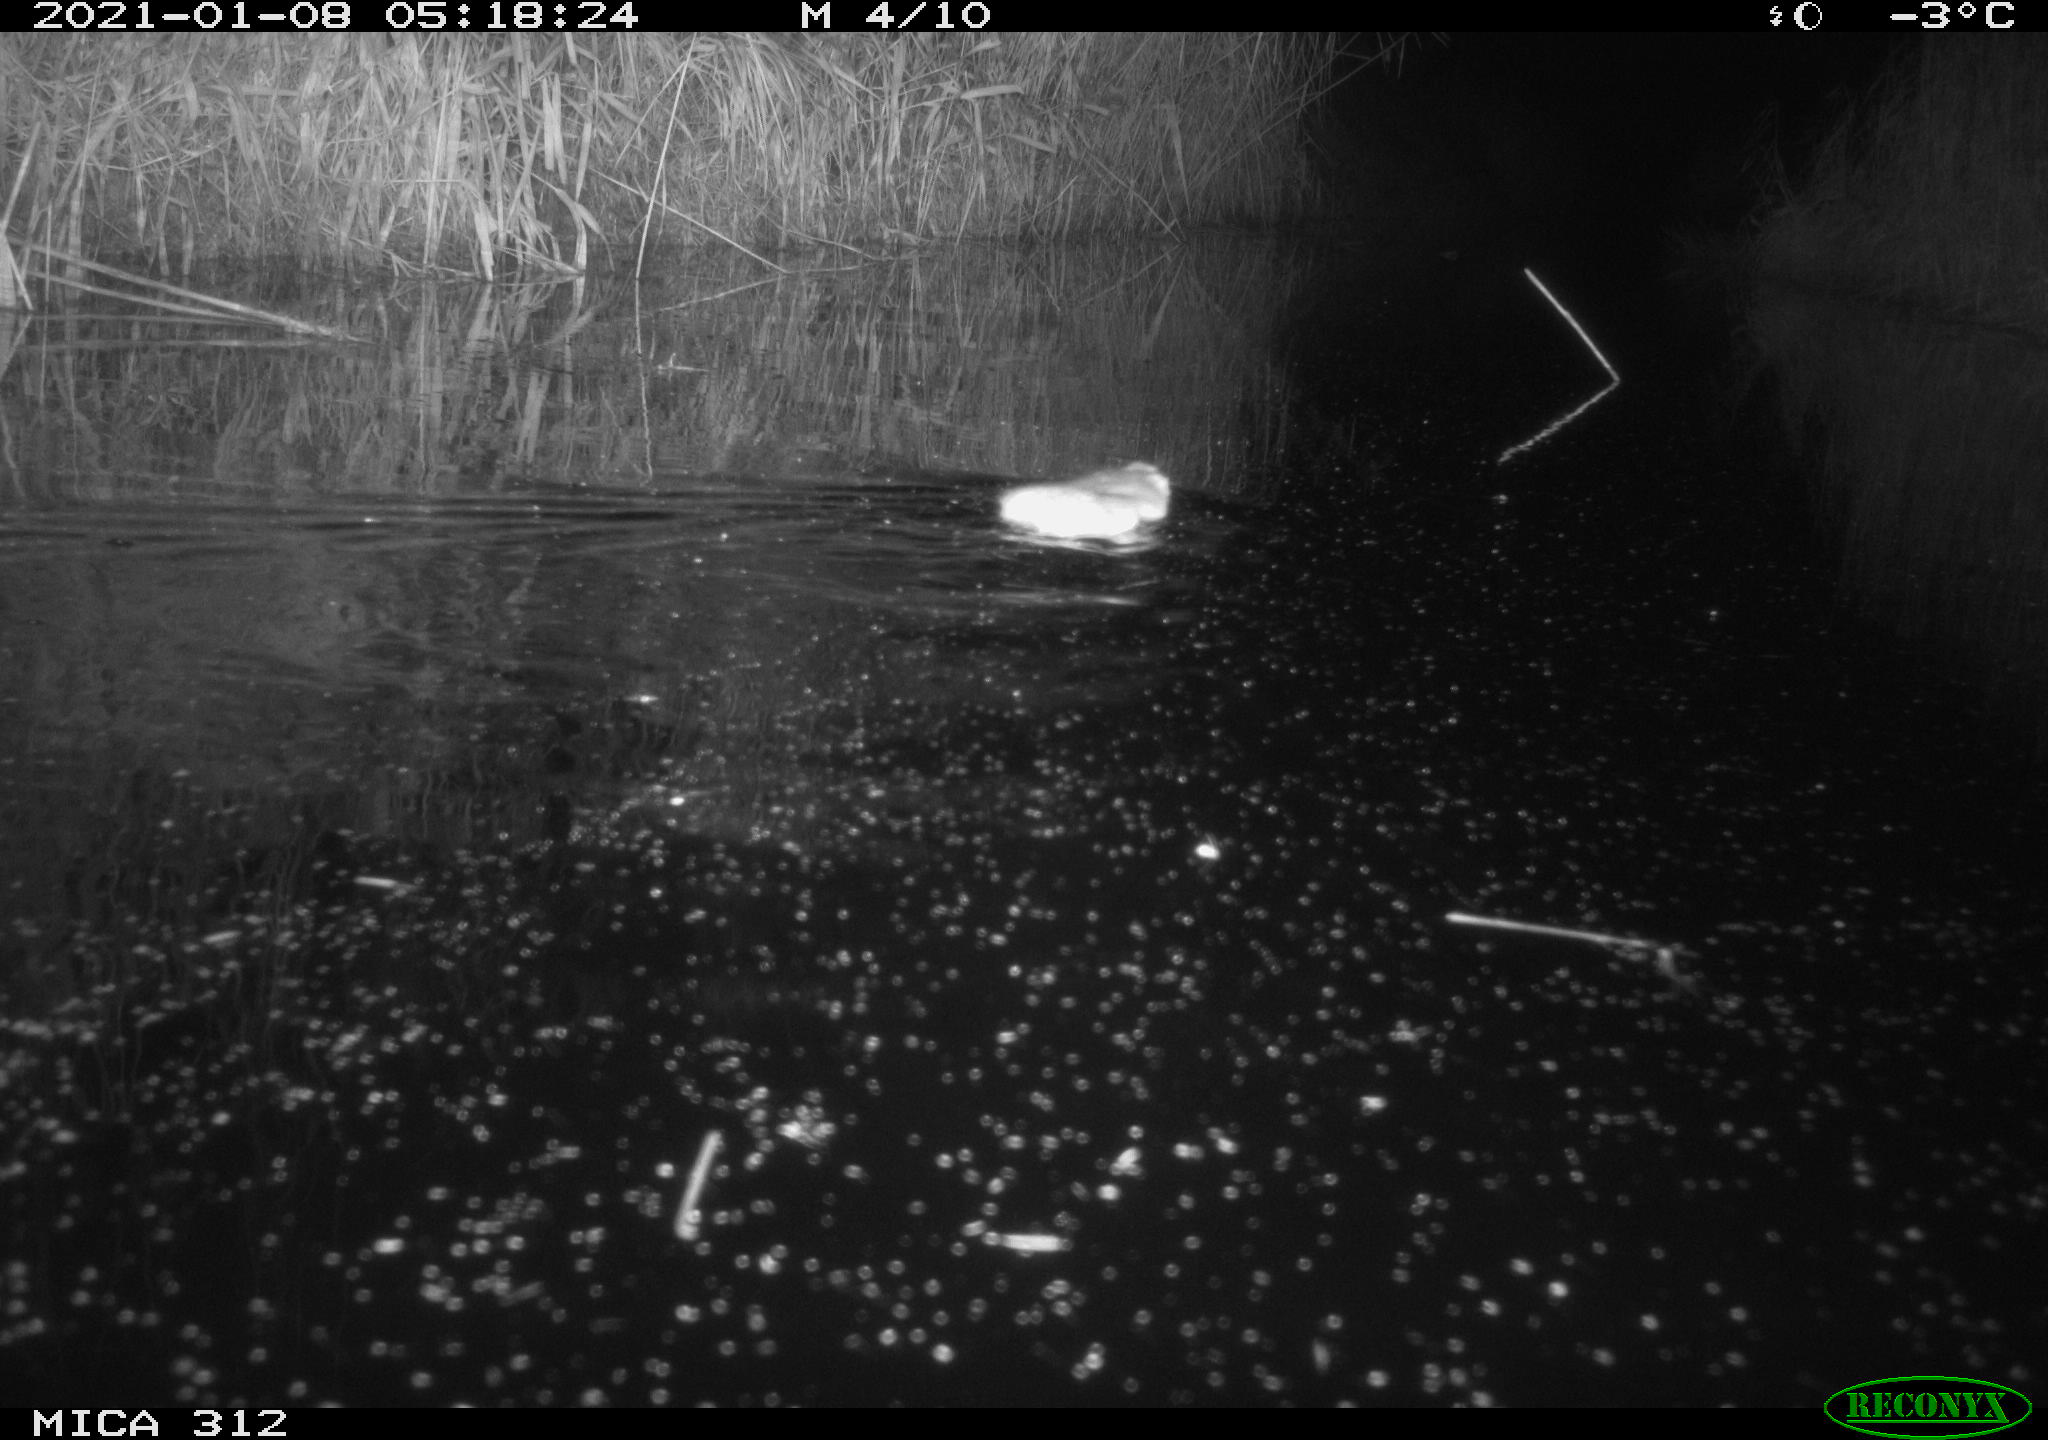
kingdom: Animalia
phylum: Chordata
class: Mammalia
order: Rodentia
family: Muridae
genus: Rattus
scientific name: Rattus norvegicus
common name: Brown rat
